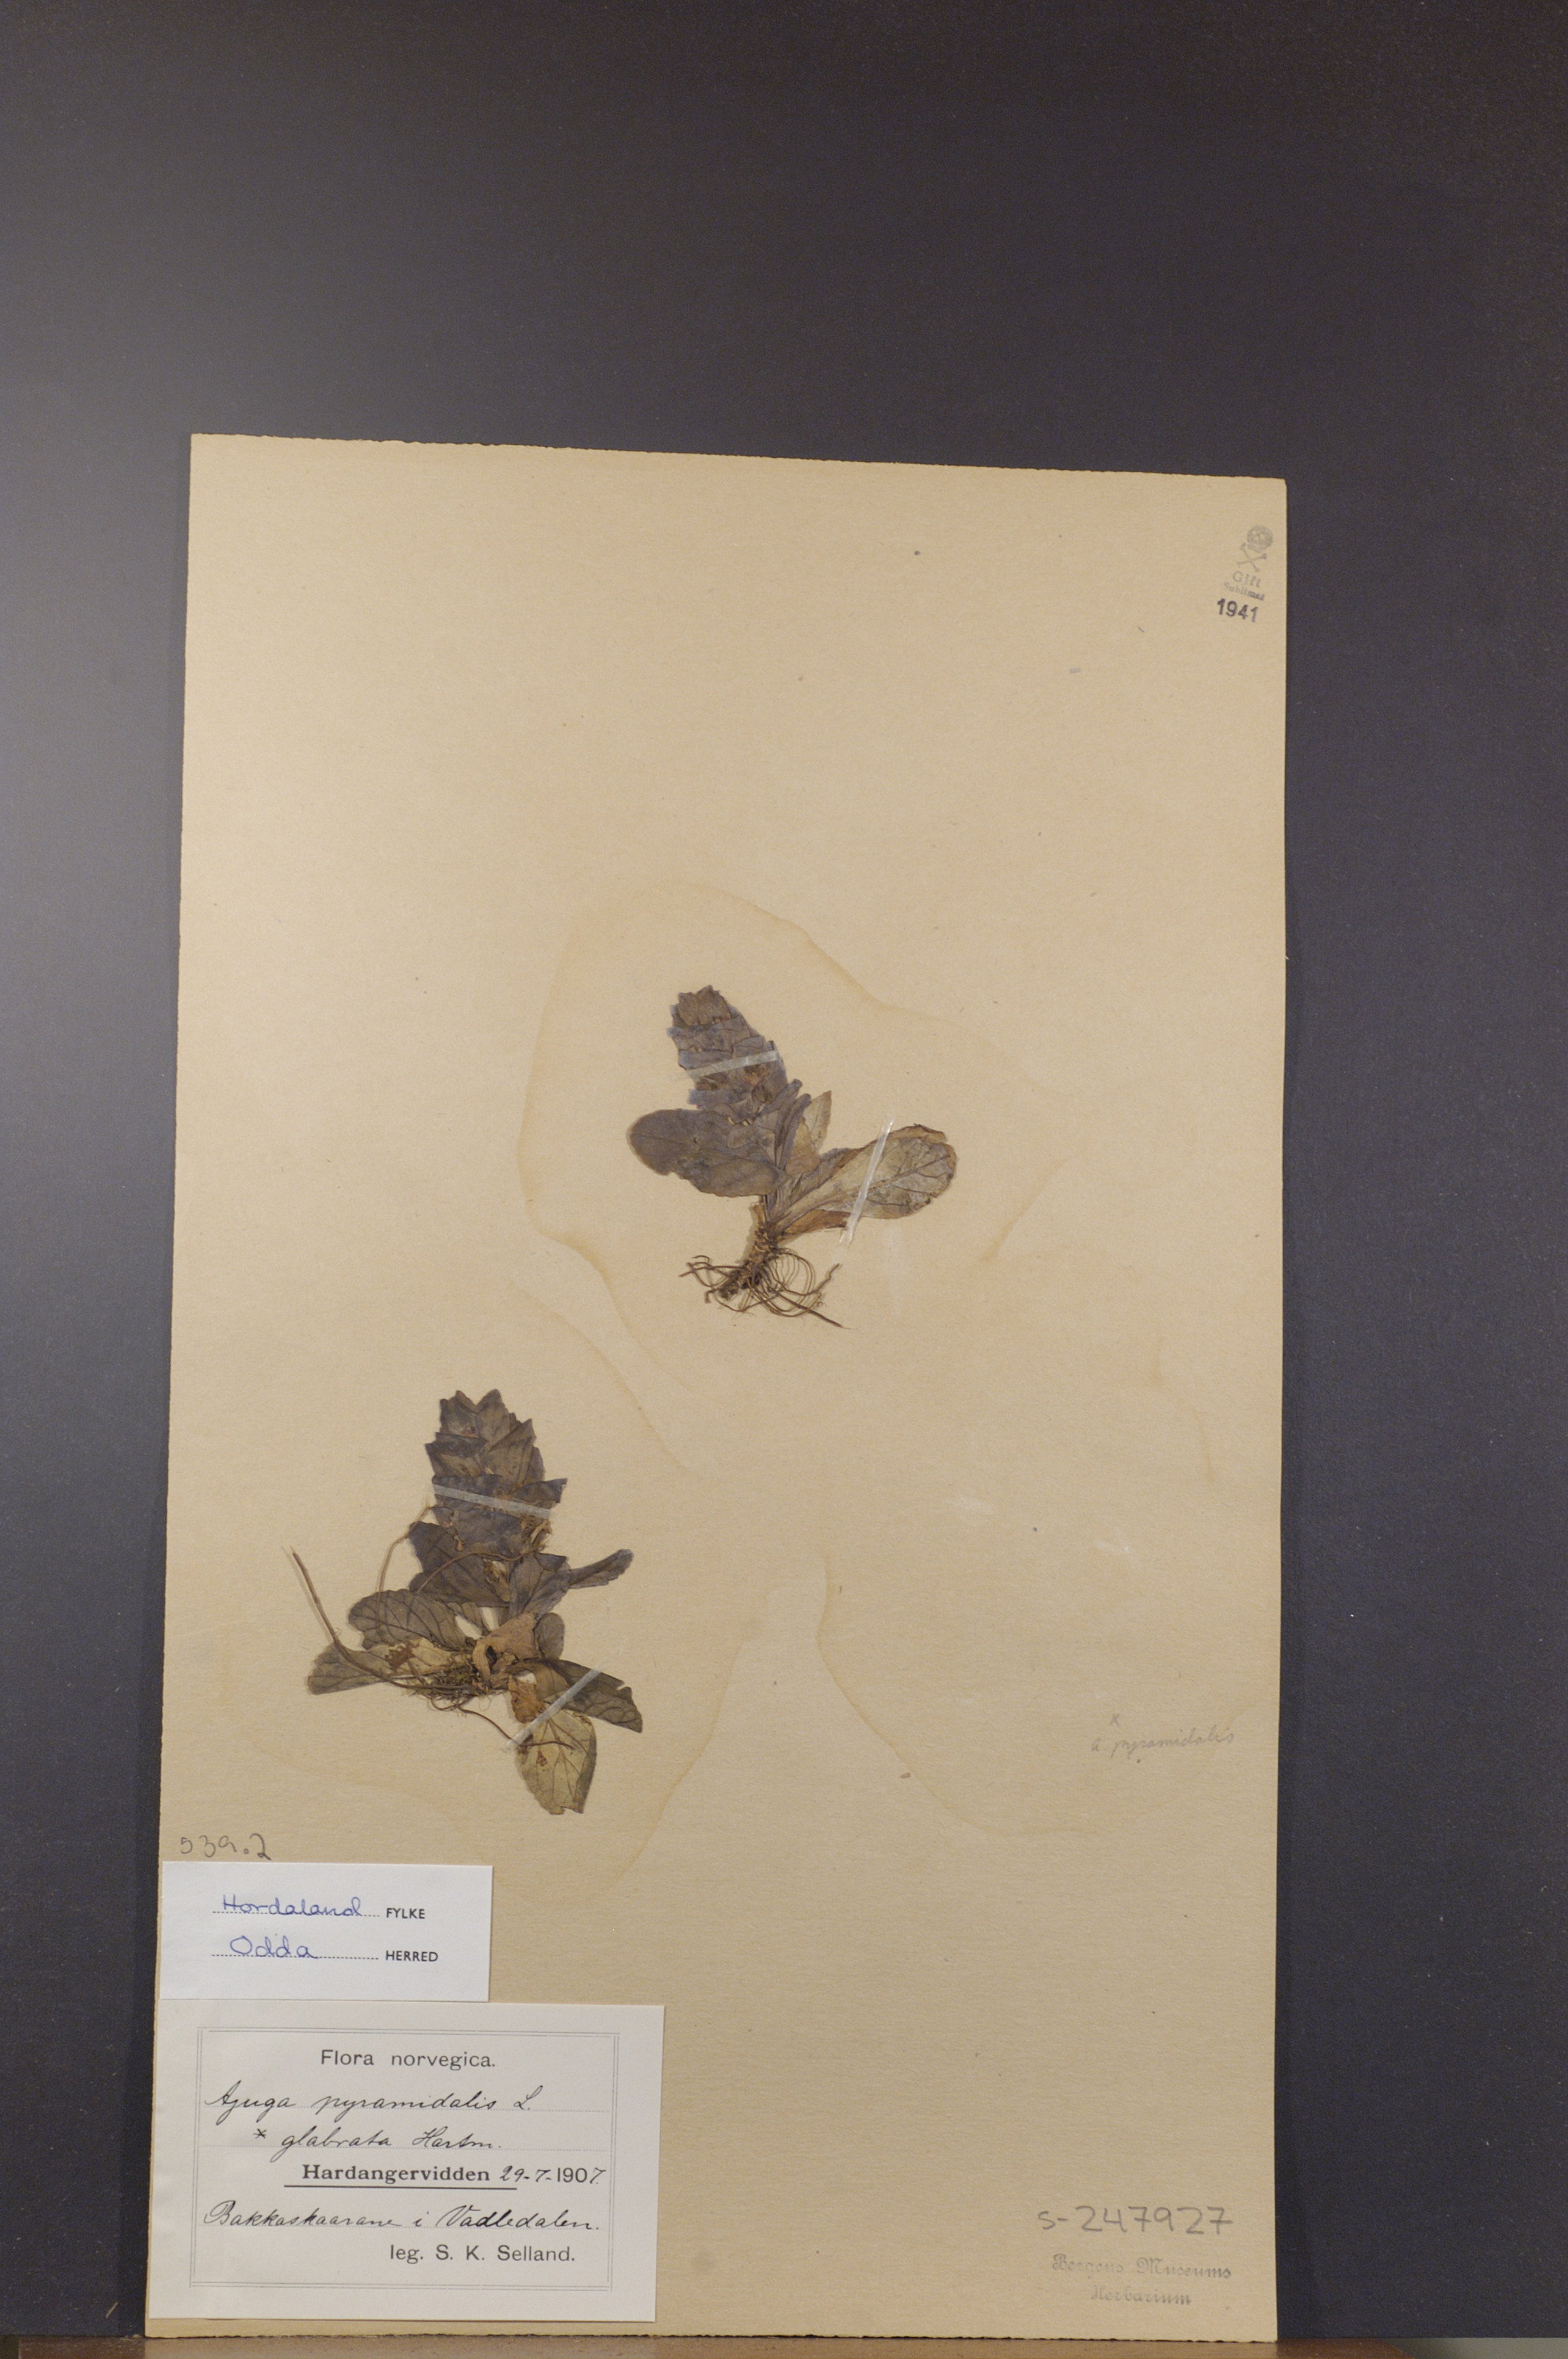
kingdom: Plantae
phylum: Tracheophyta
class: Magnoliopsida
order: Lamiales
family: Lamiaceae
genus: Ajuga
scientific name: Ajuga pyramidalis
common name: Pyramid bugle
